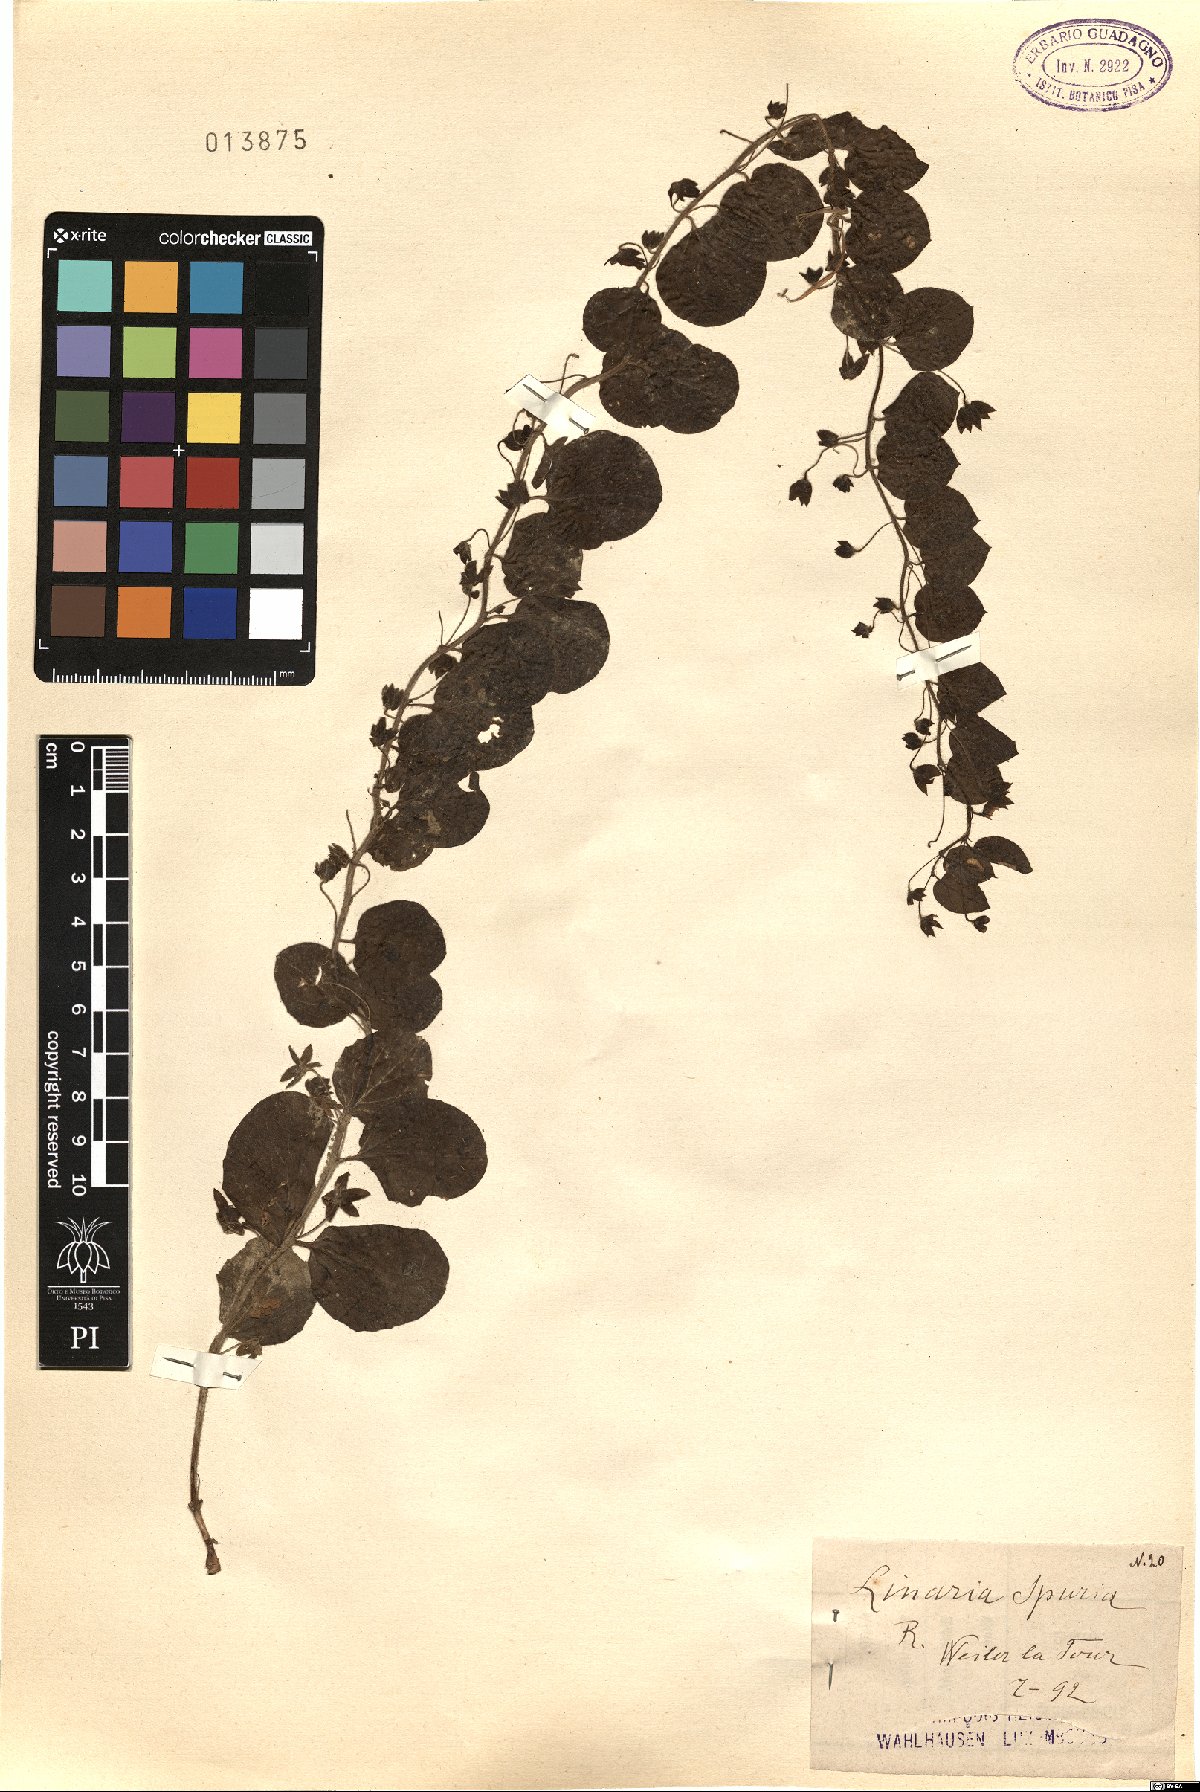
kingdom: Plantae
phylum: Tracheophyta
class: Magnoliopsida
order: Lamiales
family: Plantaginaceae
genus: Kickxia
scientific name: Kickxia spuria
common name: Round-leaved fluellen
